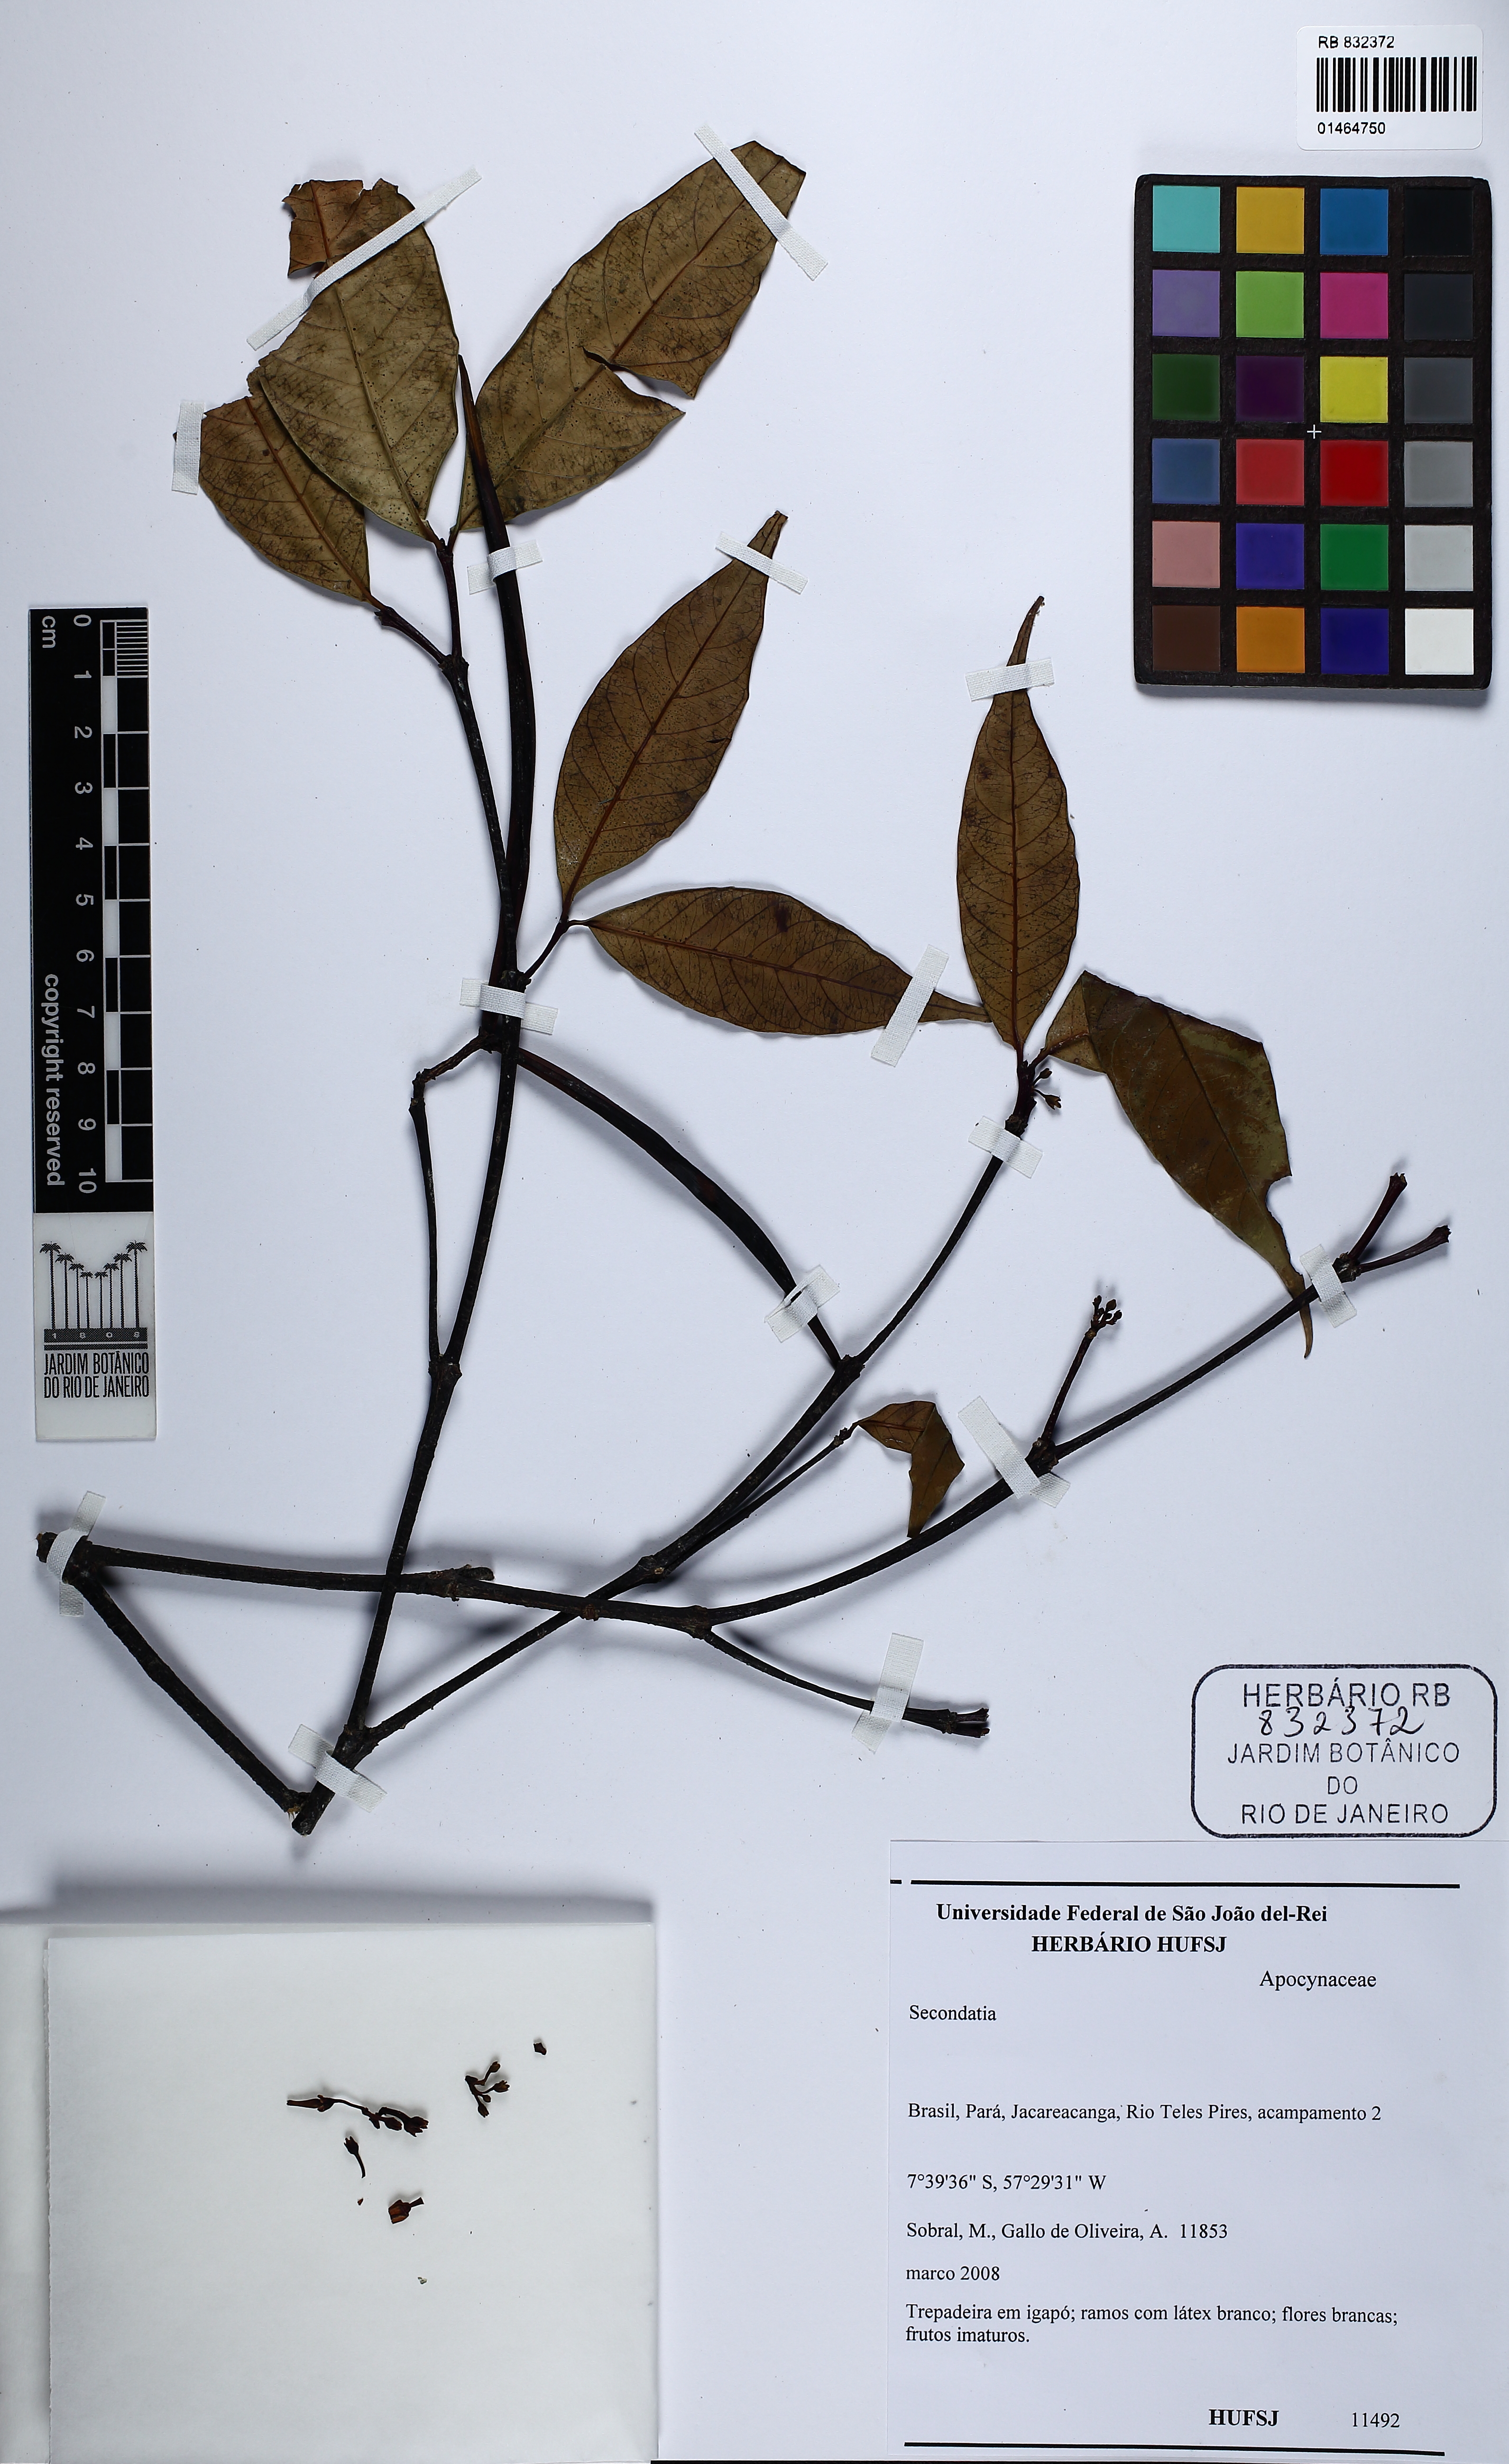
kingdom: Plantae
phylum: Tracheophyta
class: Magnoliopsida
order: Gentianales
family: Apocynaceae
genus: Secondatia
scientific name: Secondatia
